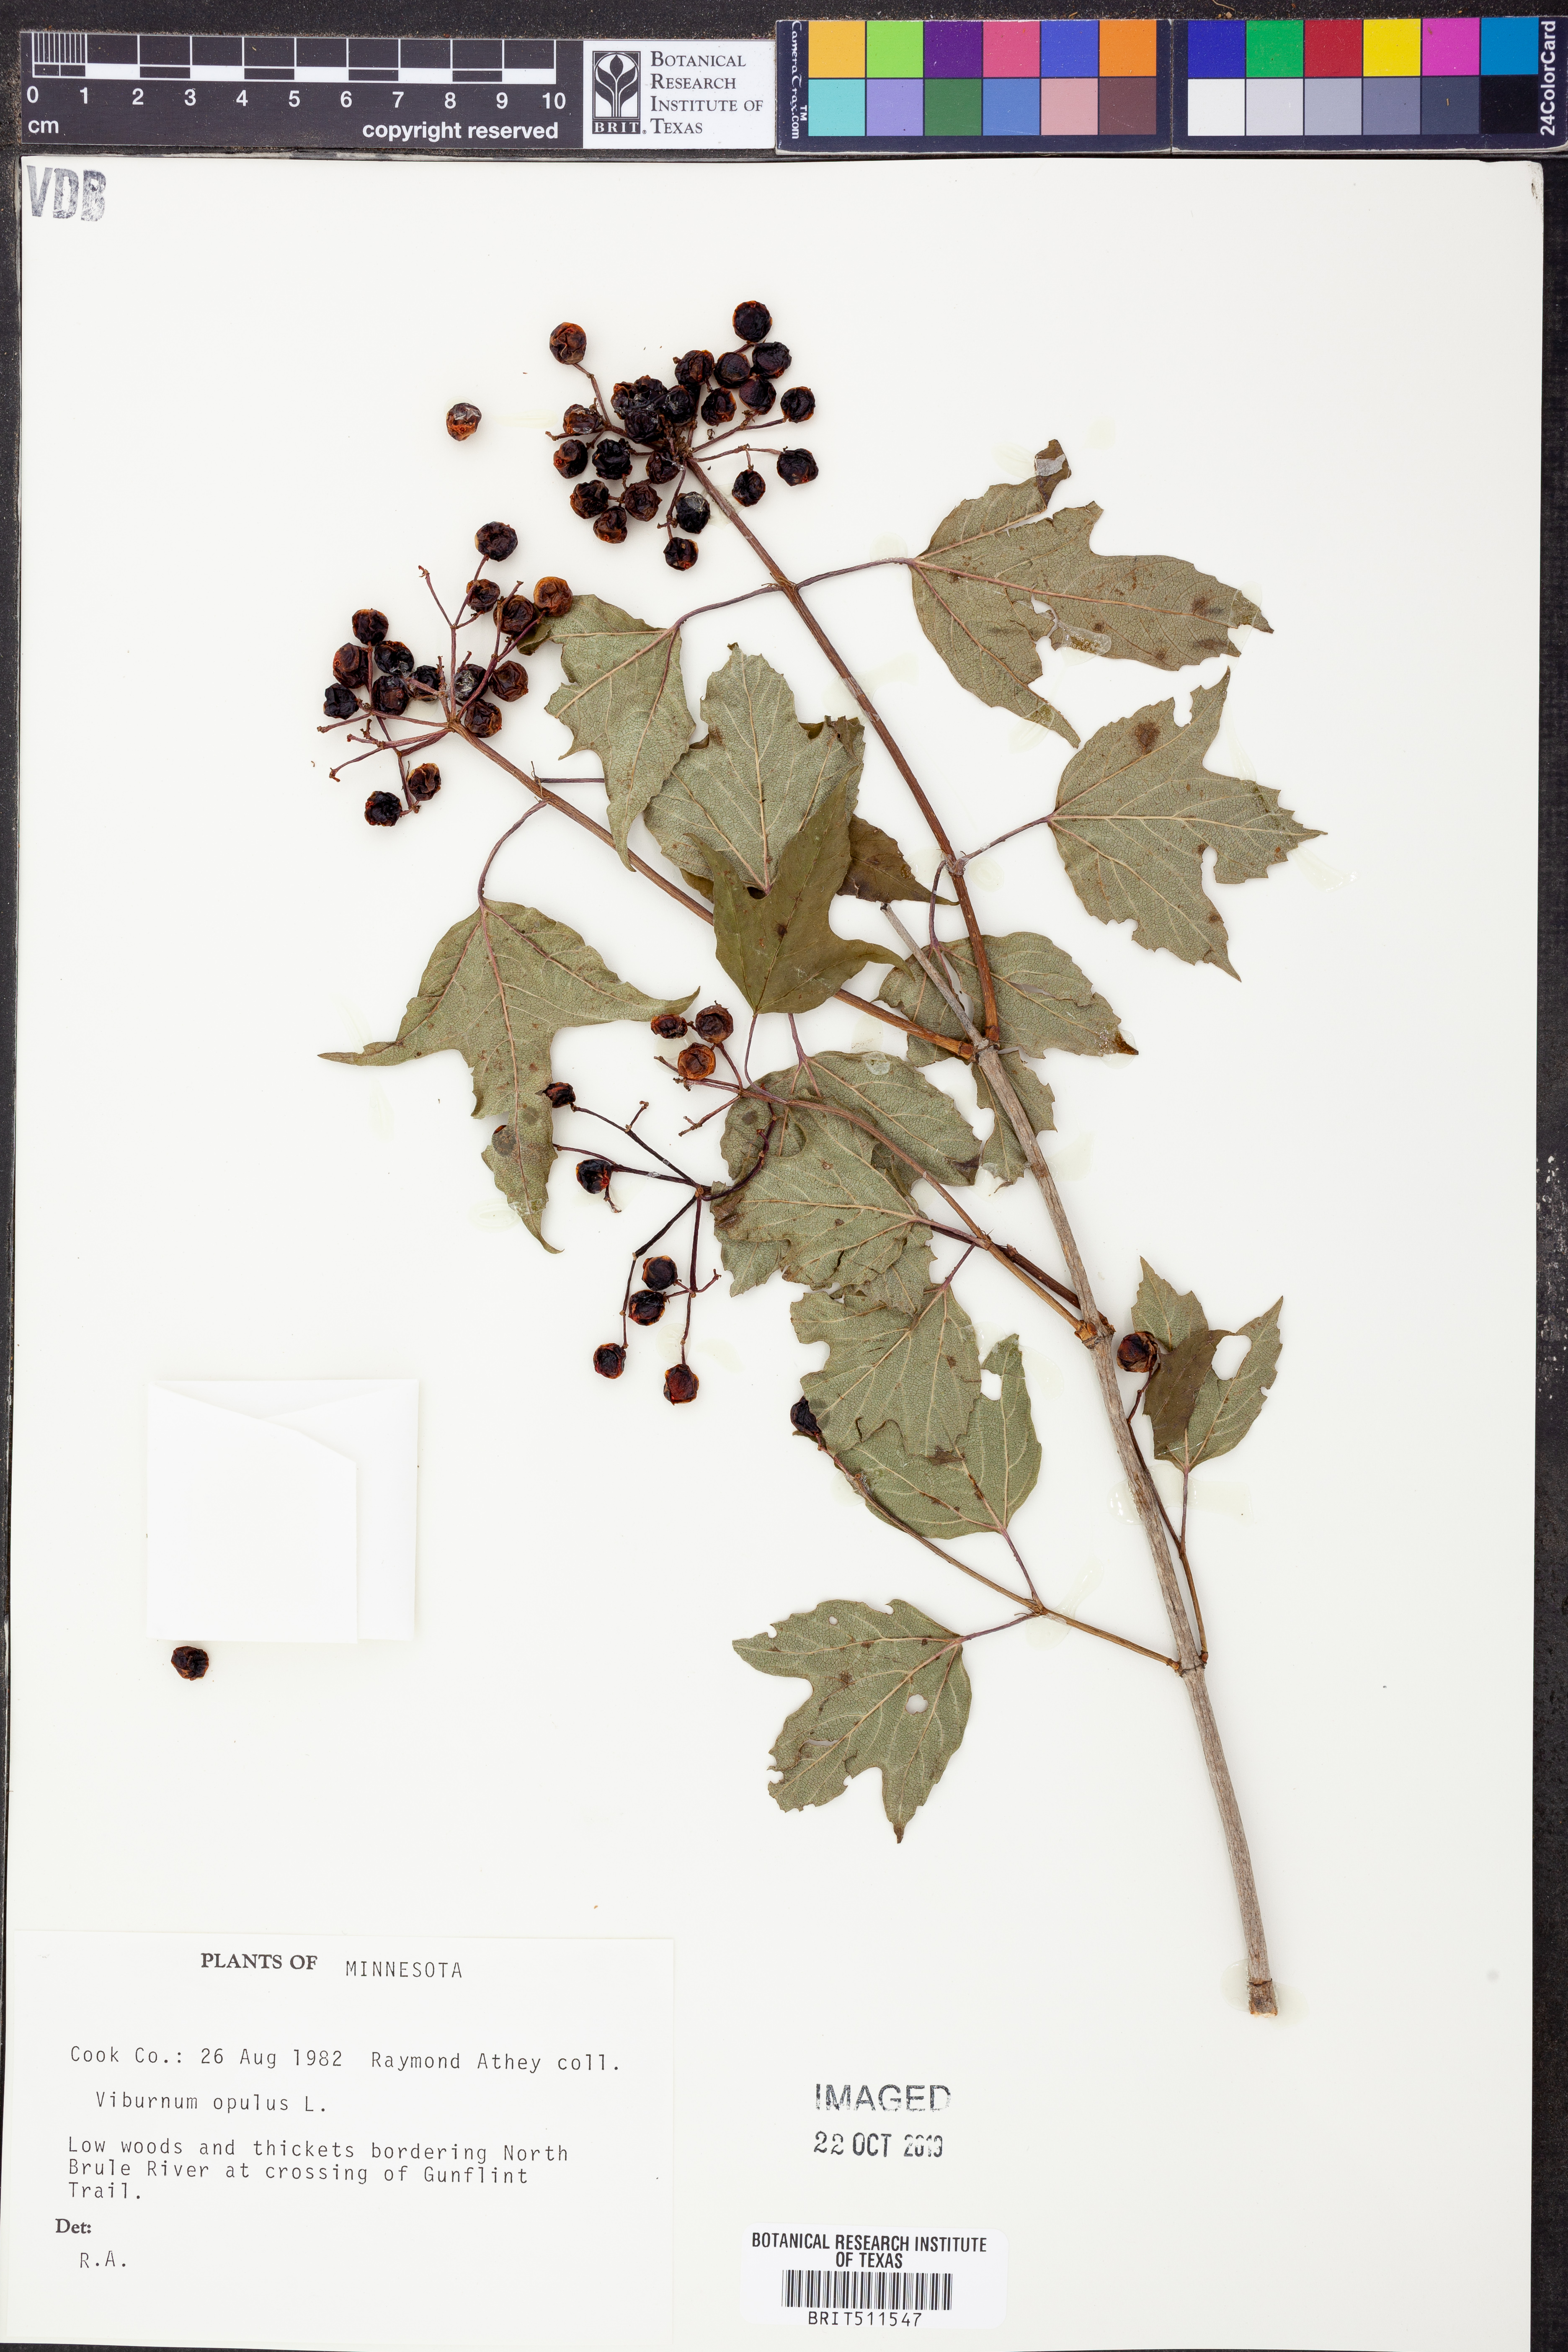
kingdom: Plantae
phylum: Tracheophyta
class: Magnoliopsida
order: Dipsacales
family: Viburnaceae
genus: Viburnum
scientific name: Viburnum opulus
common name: Guelder-rose
